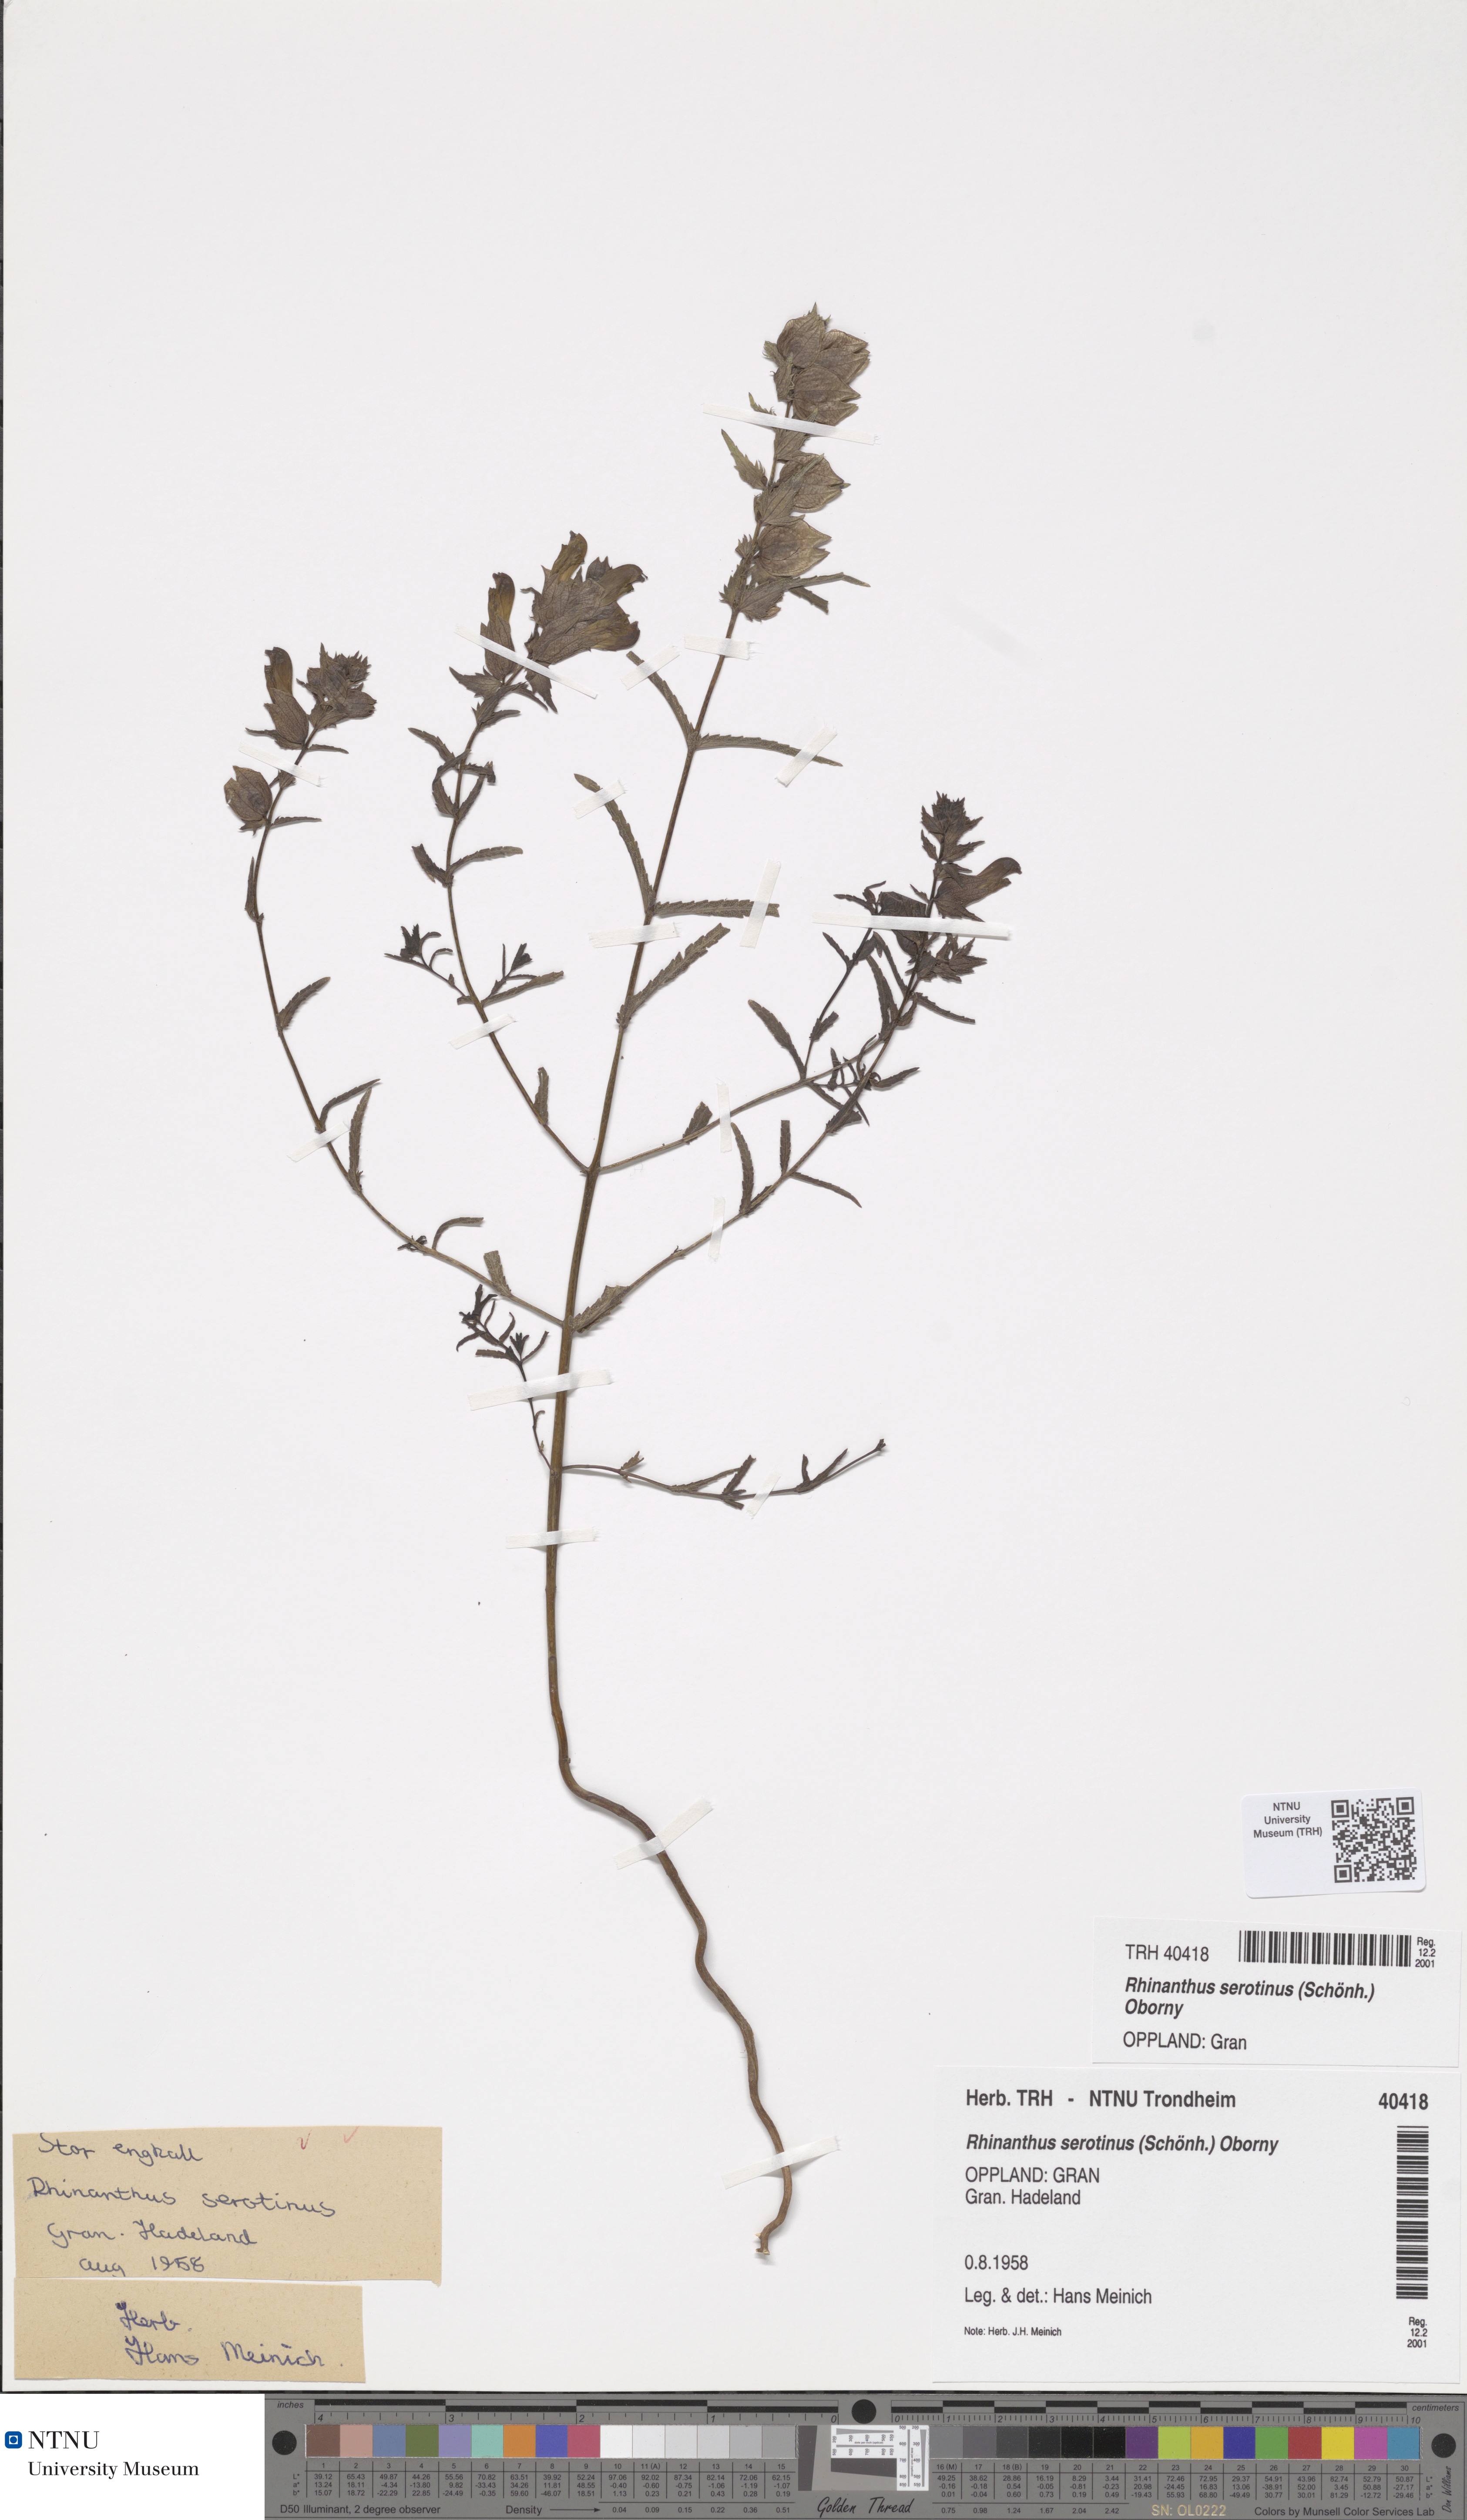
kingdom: Plantae
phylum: Tracheophyta
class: Magnoliopsida
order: Lamiales
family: Orobanchaceae
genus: Rhinanthus
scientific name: Rhinanthus
